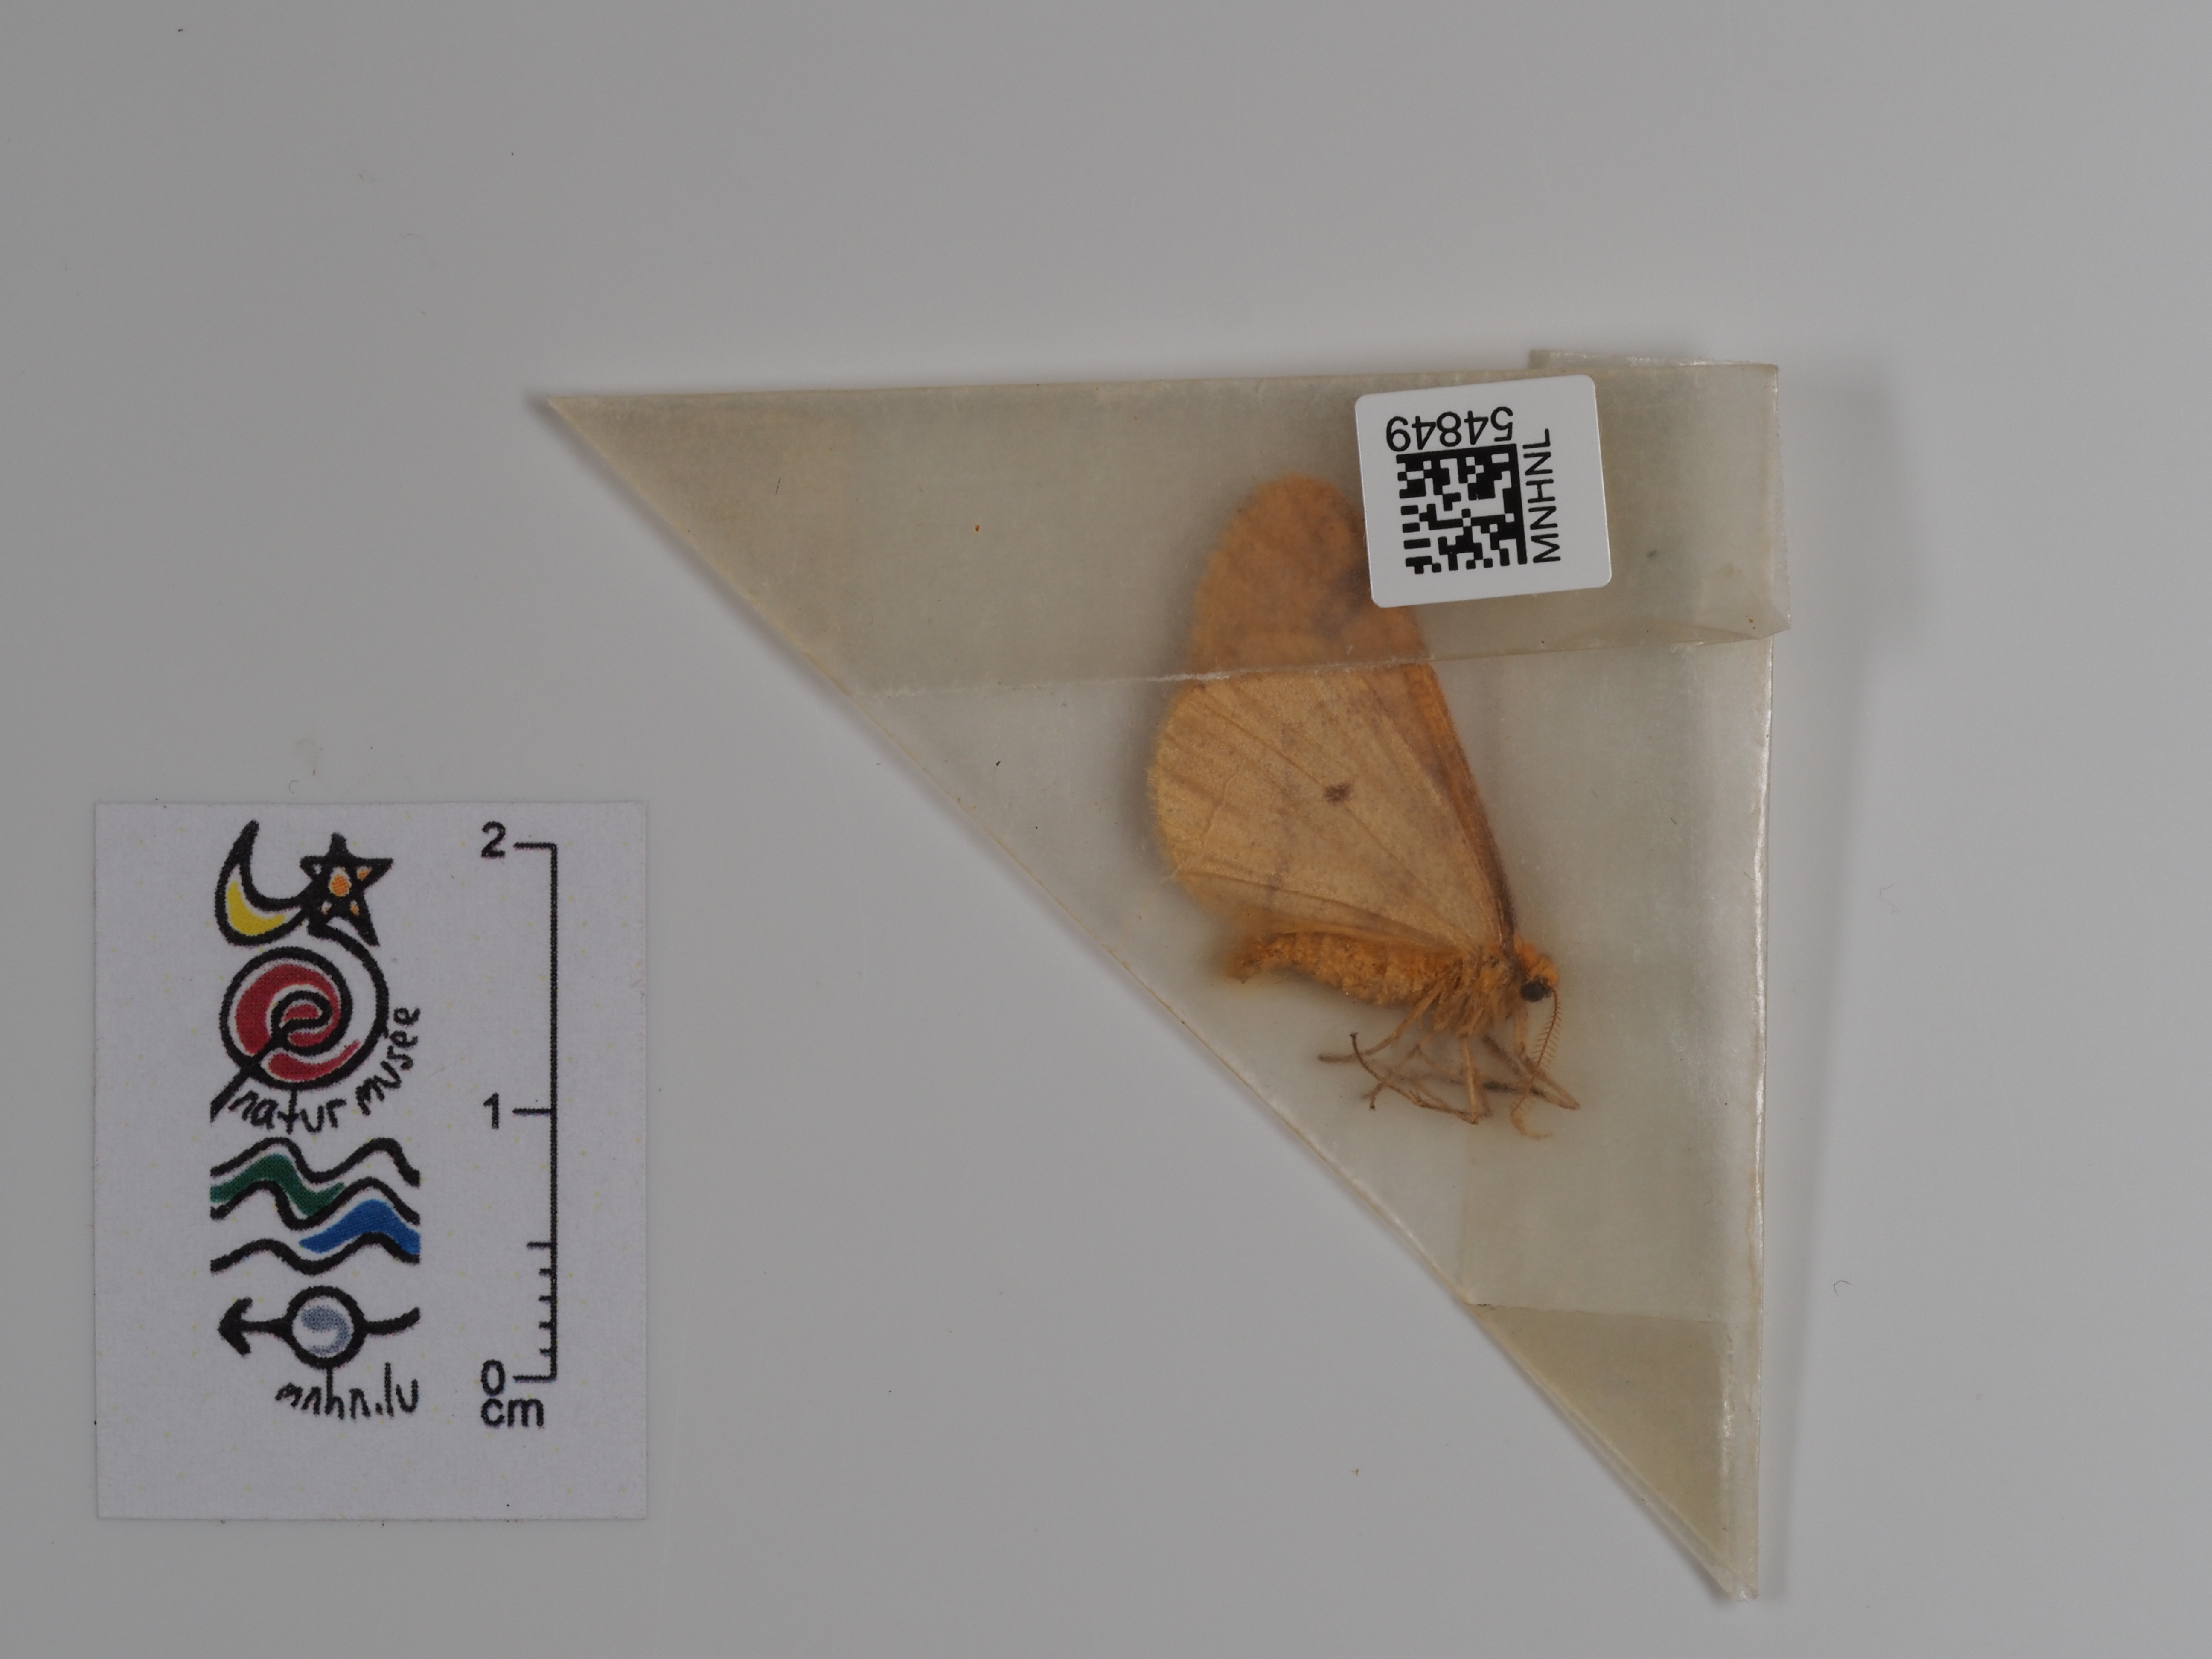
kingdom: Animalia
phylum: Arthropoda
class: Insecta
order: Lepidoptera
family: Geometridae
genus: Agriopis
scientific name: Agriopis aurantiaria
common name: Scarce umber
